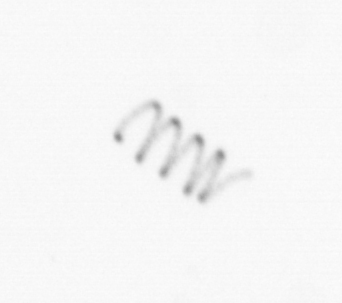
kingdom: Chromista
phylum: Ochrophyta
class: Bacillariophyceae
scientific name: Bacillariophyceae
